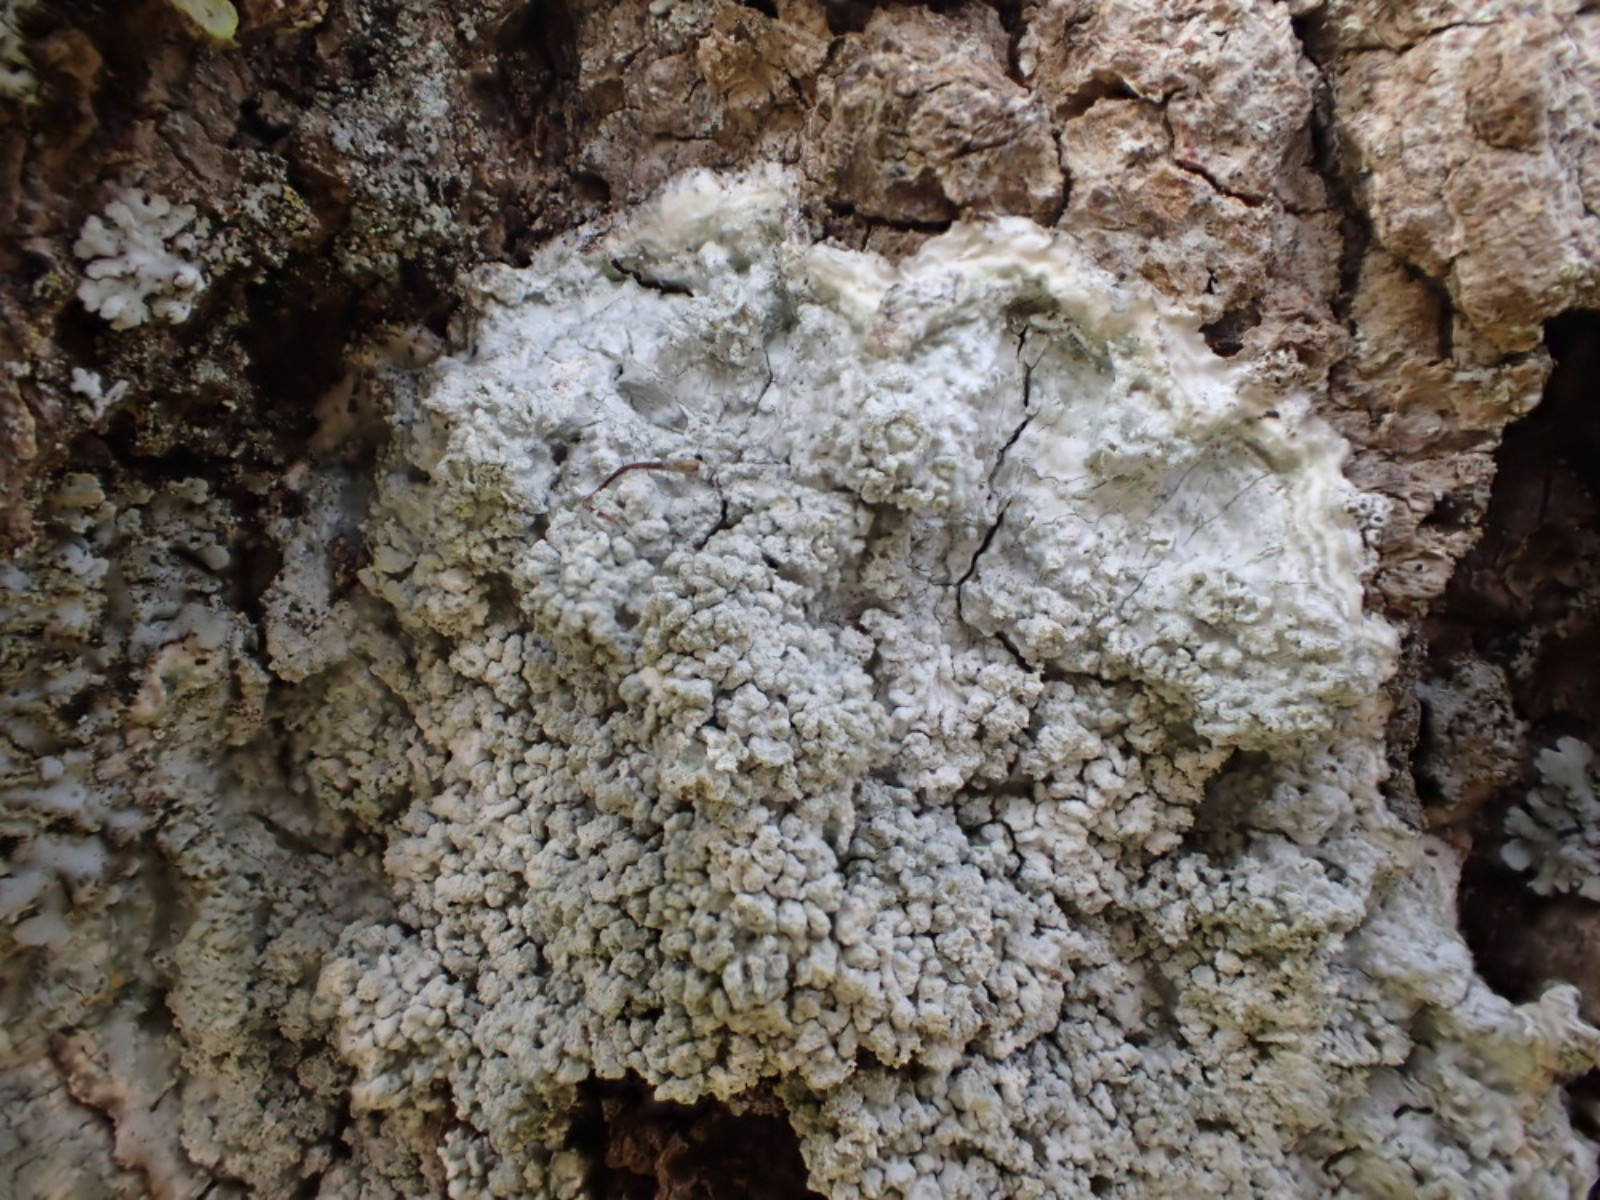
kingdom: Fungi
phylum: Ascomycota
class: Lecanoromycetes
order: Pertusariales
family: Pertusariaceae
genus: Lepra
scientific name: Lepra albescens
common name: hvidmelet prikvortelav
